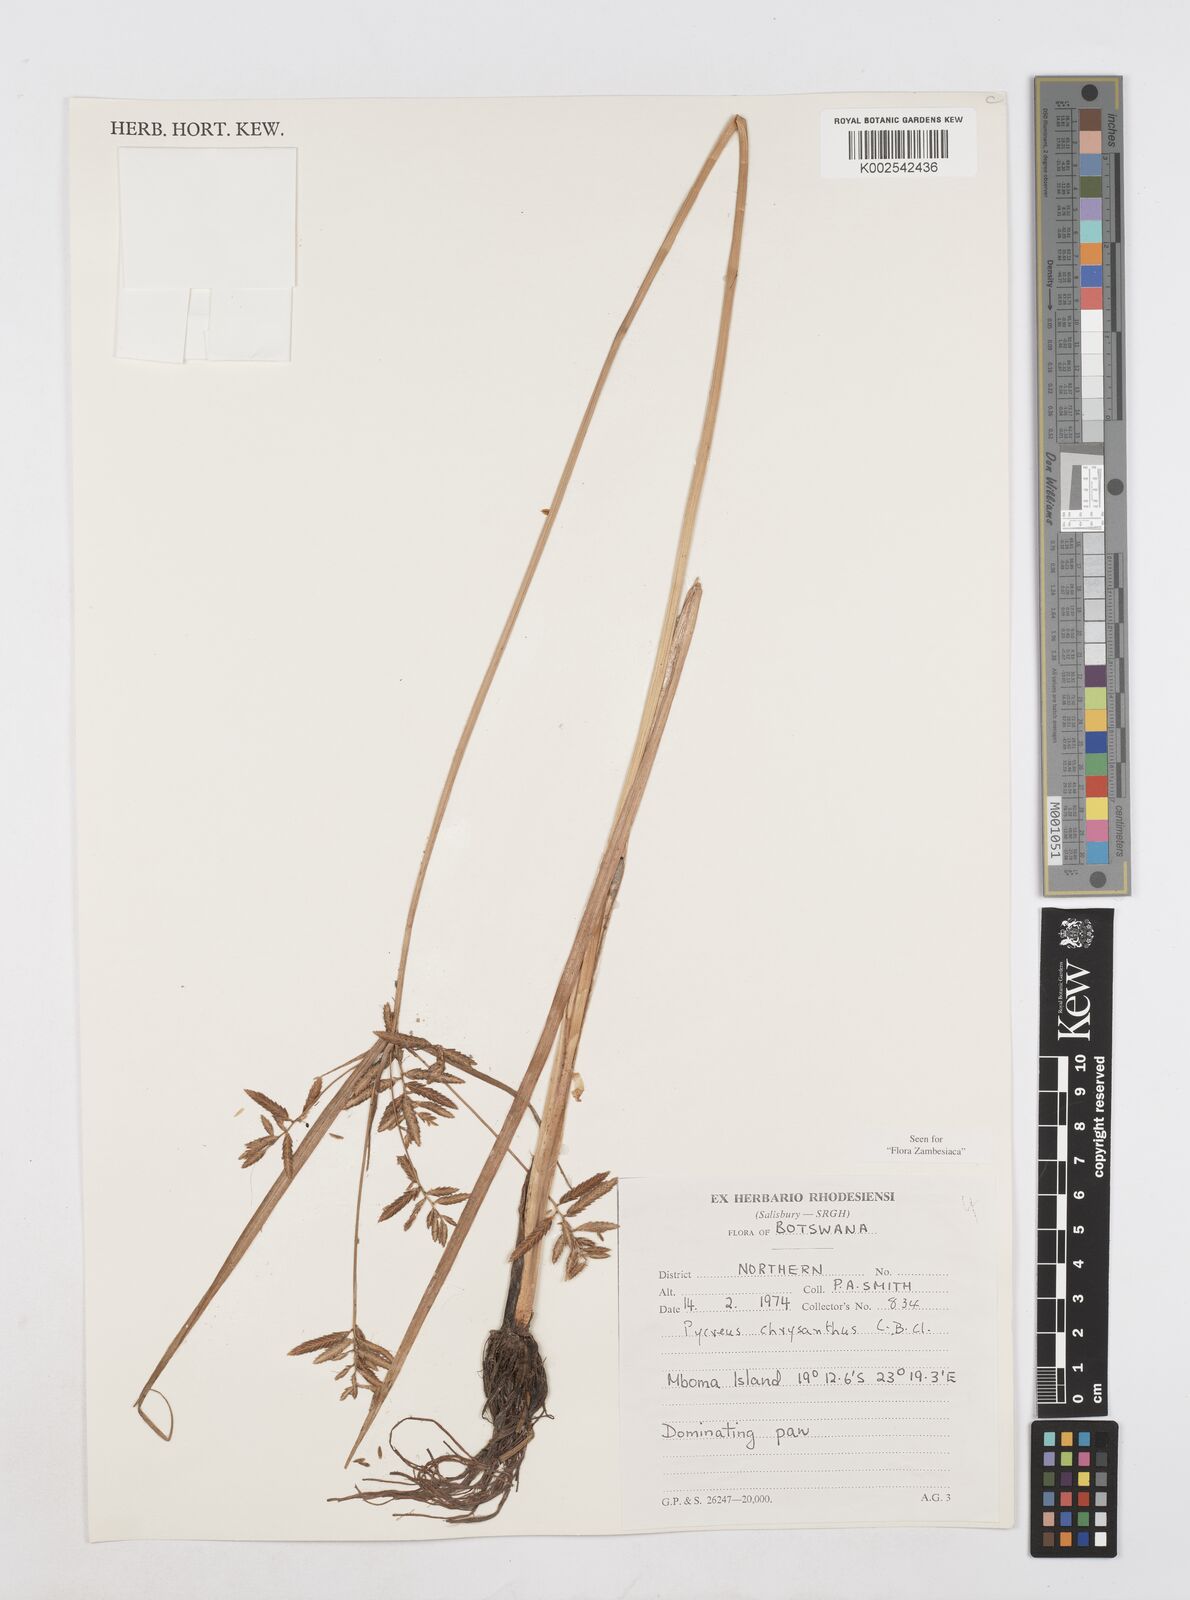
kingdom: Plantae
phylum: Tracheophyta
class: Liliopsida
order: Poales
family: Cyperaceae
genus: Cyperus
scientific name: Cyperus chrysanthus
